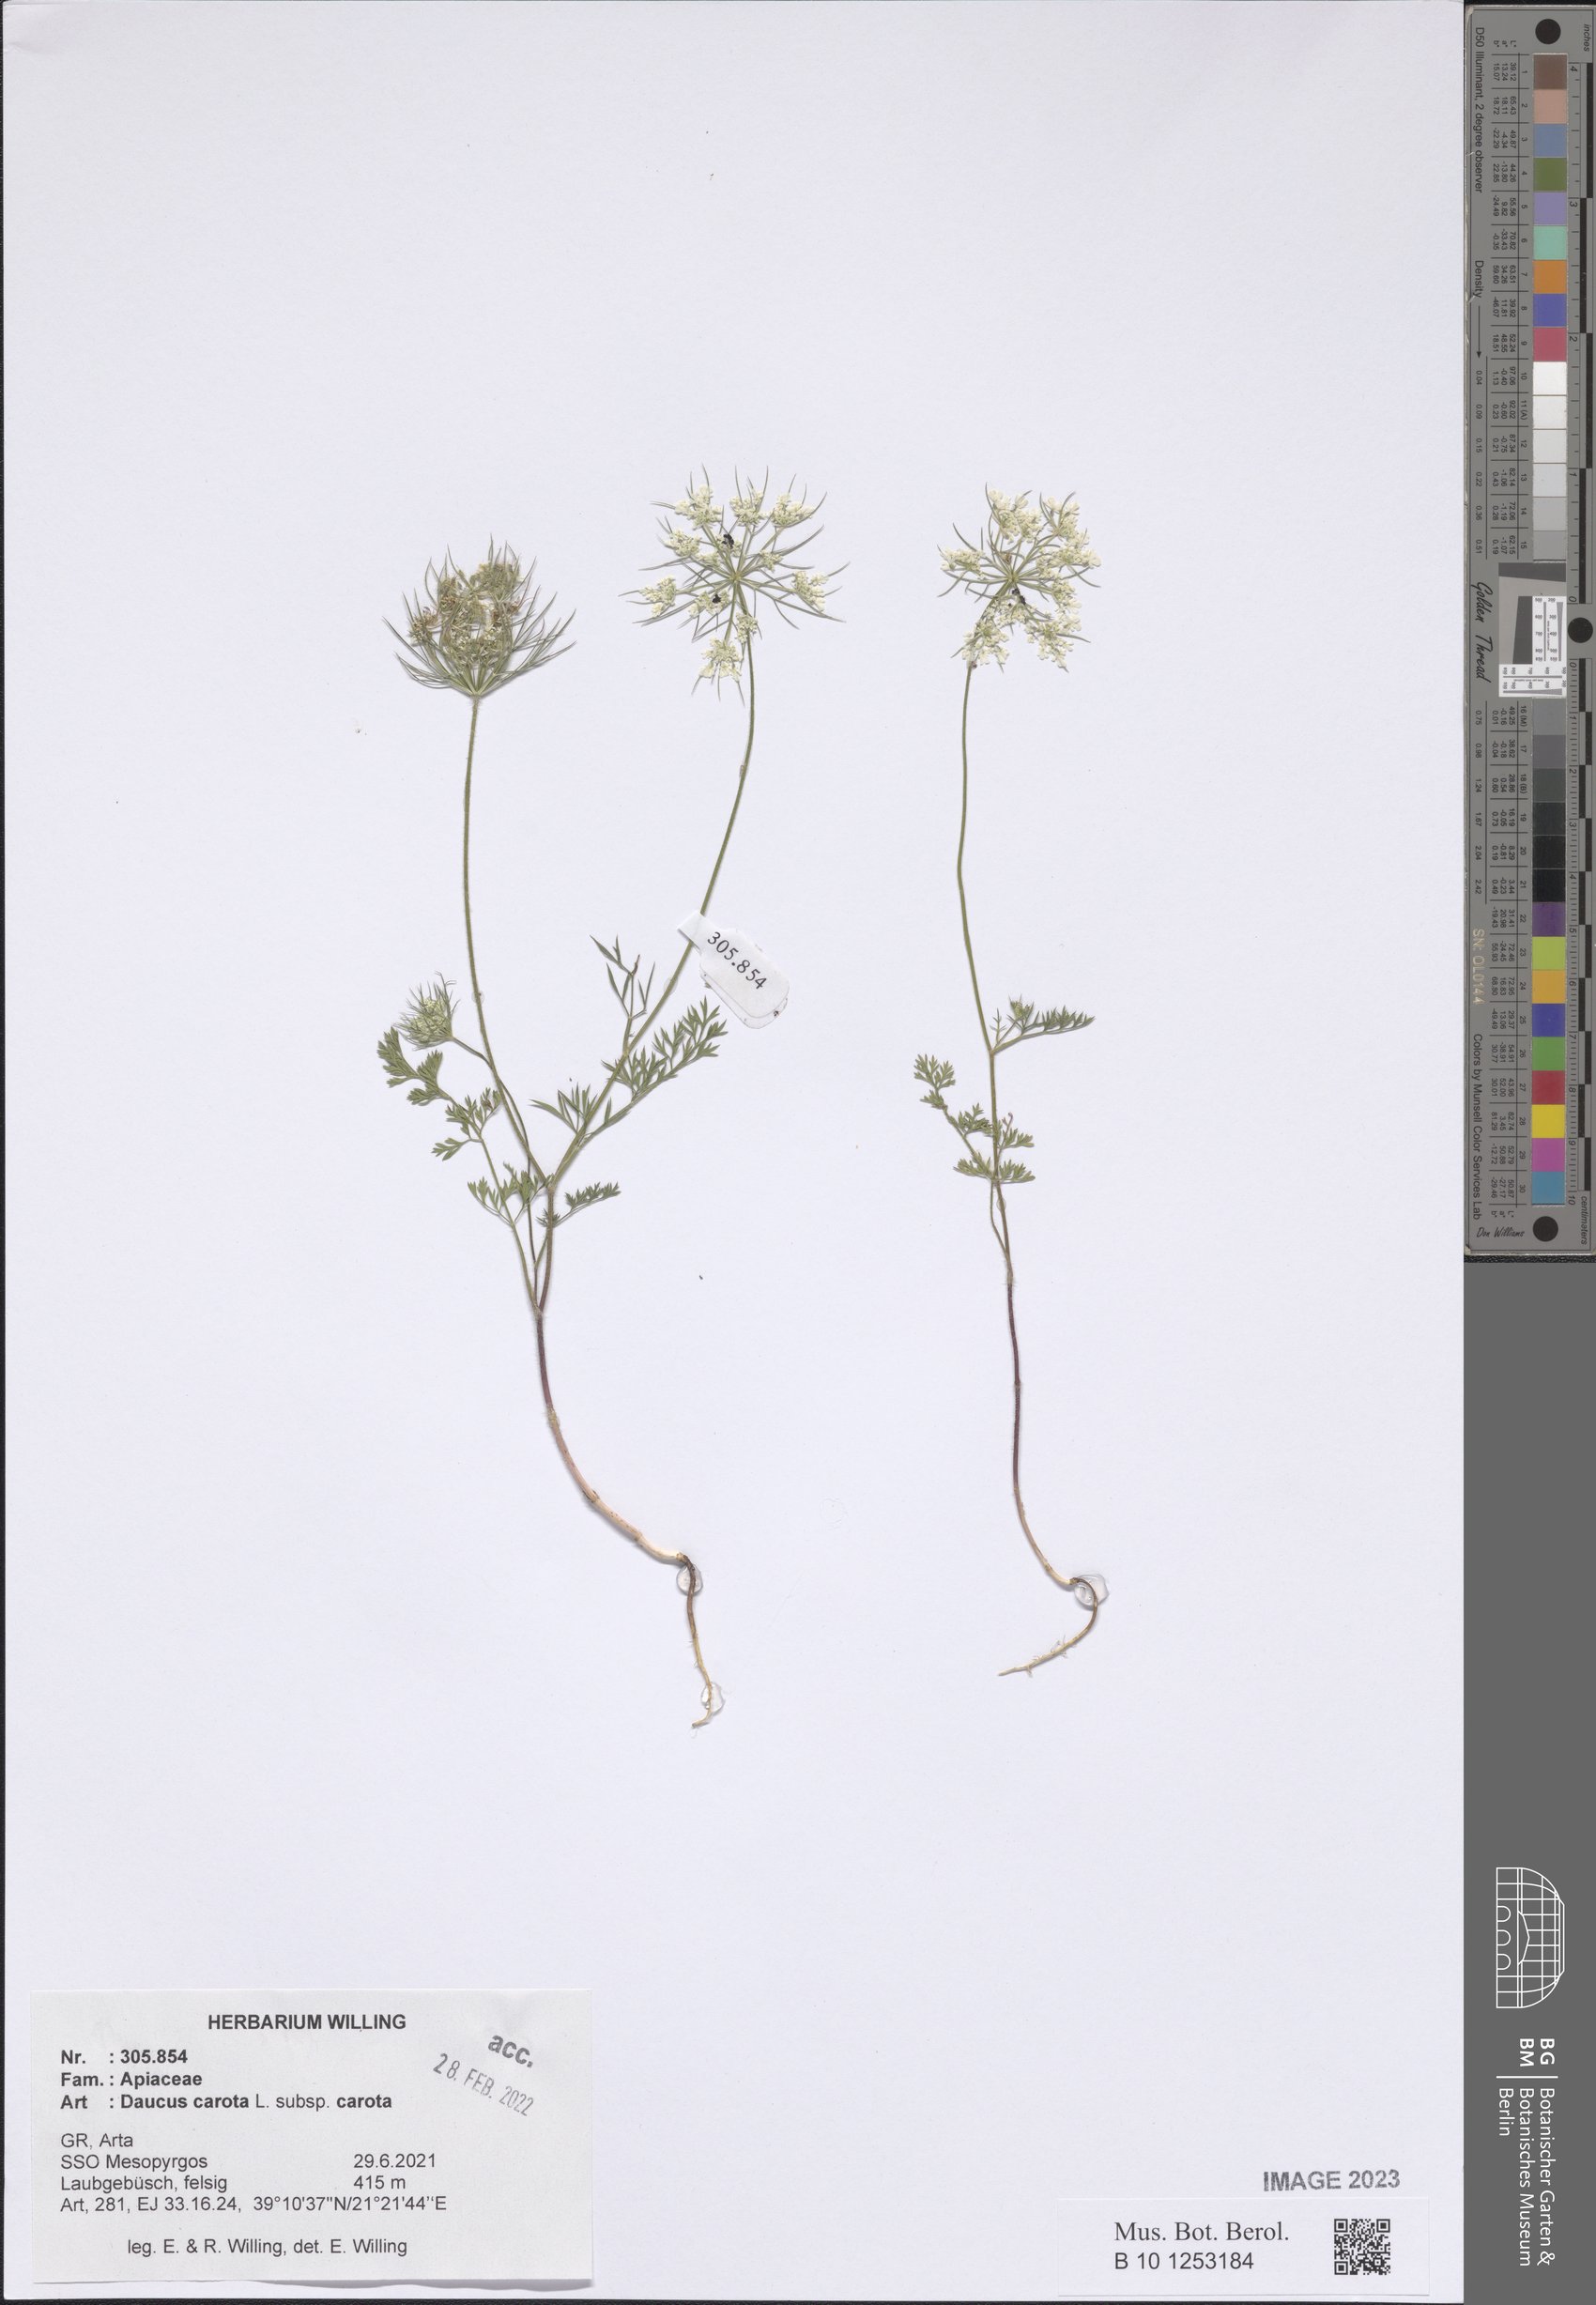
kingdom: Plantae
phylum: Tracheophyta
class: Magnoliopsida
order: Apiales
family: Apiaceae
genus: Daucus
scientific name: Daucus carota
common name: Wild carrot
